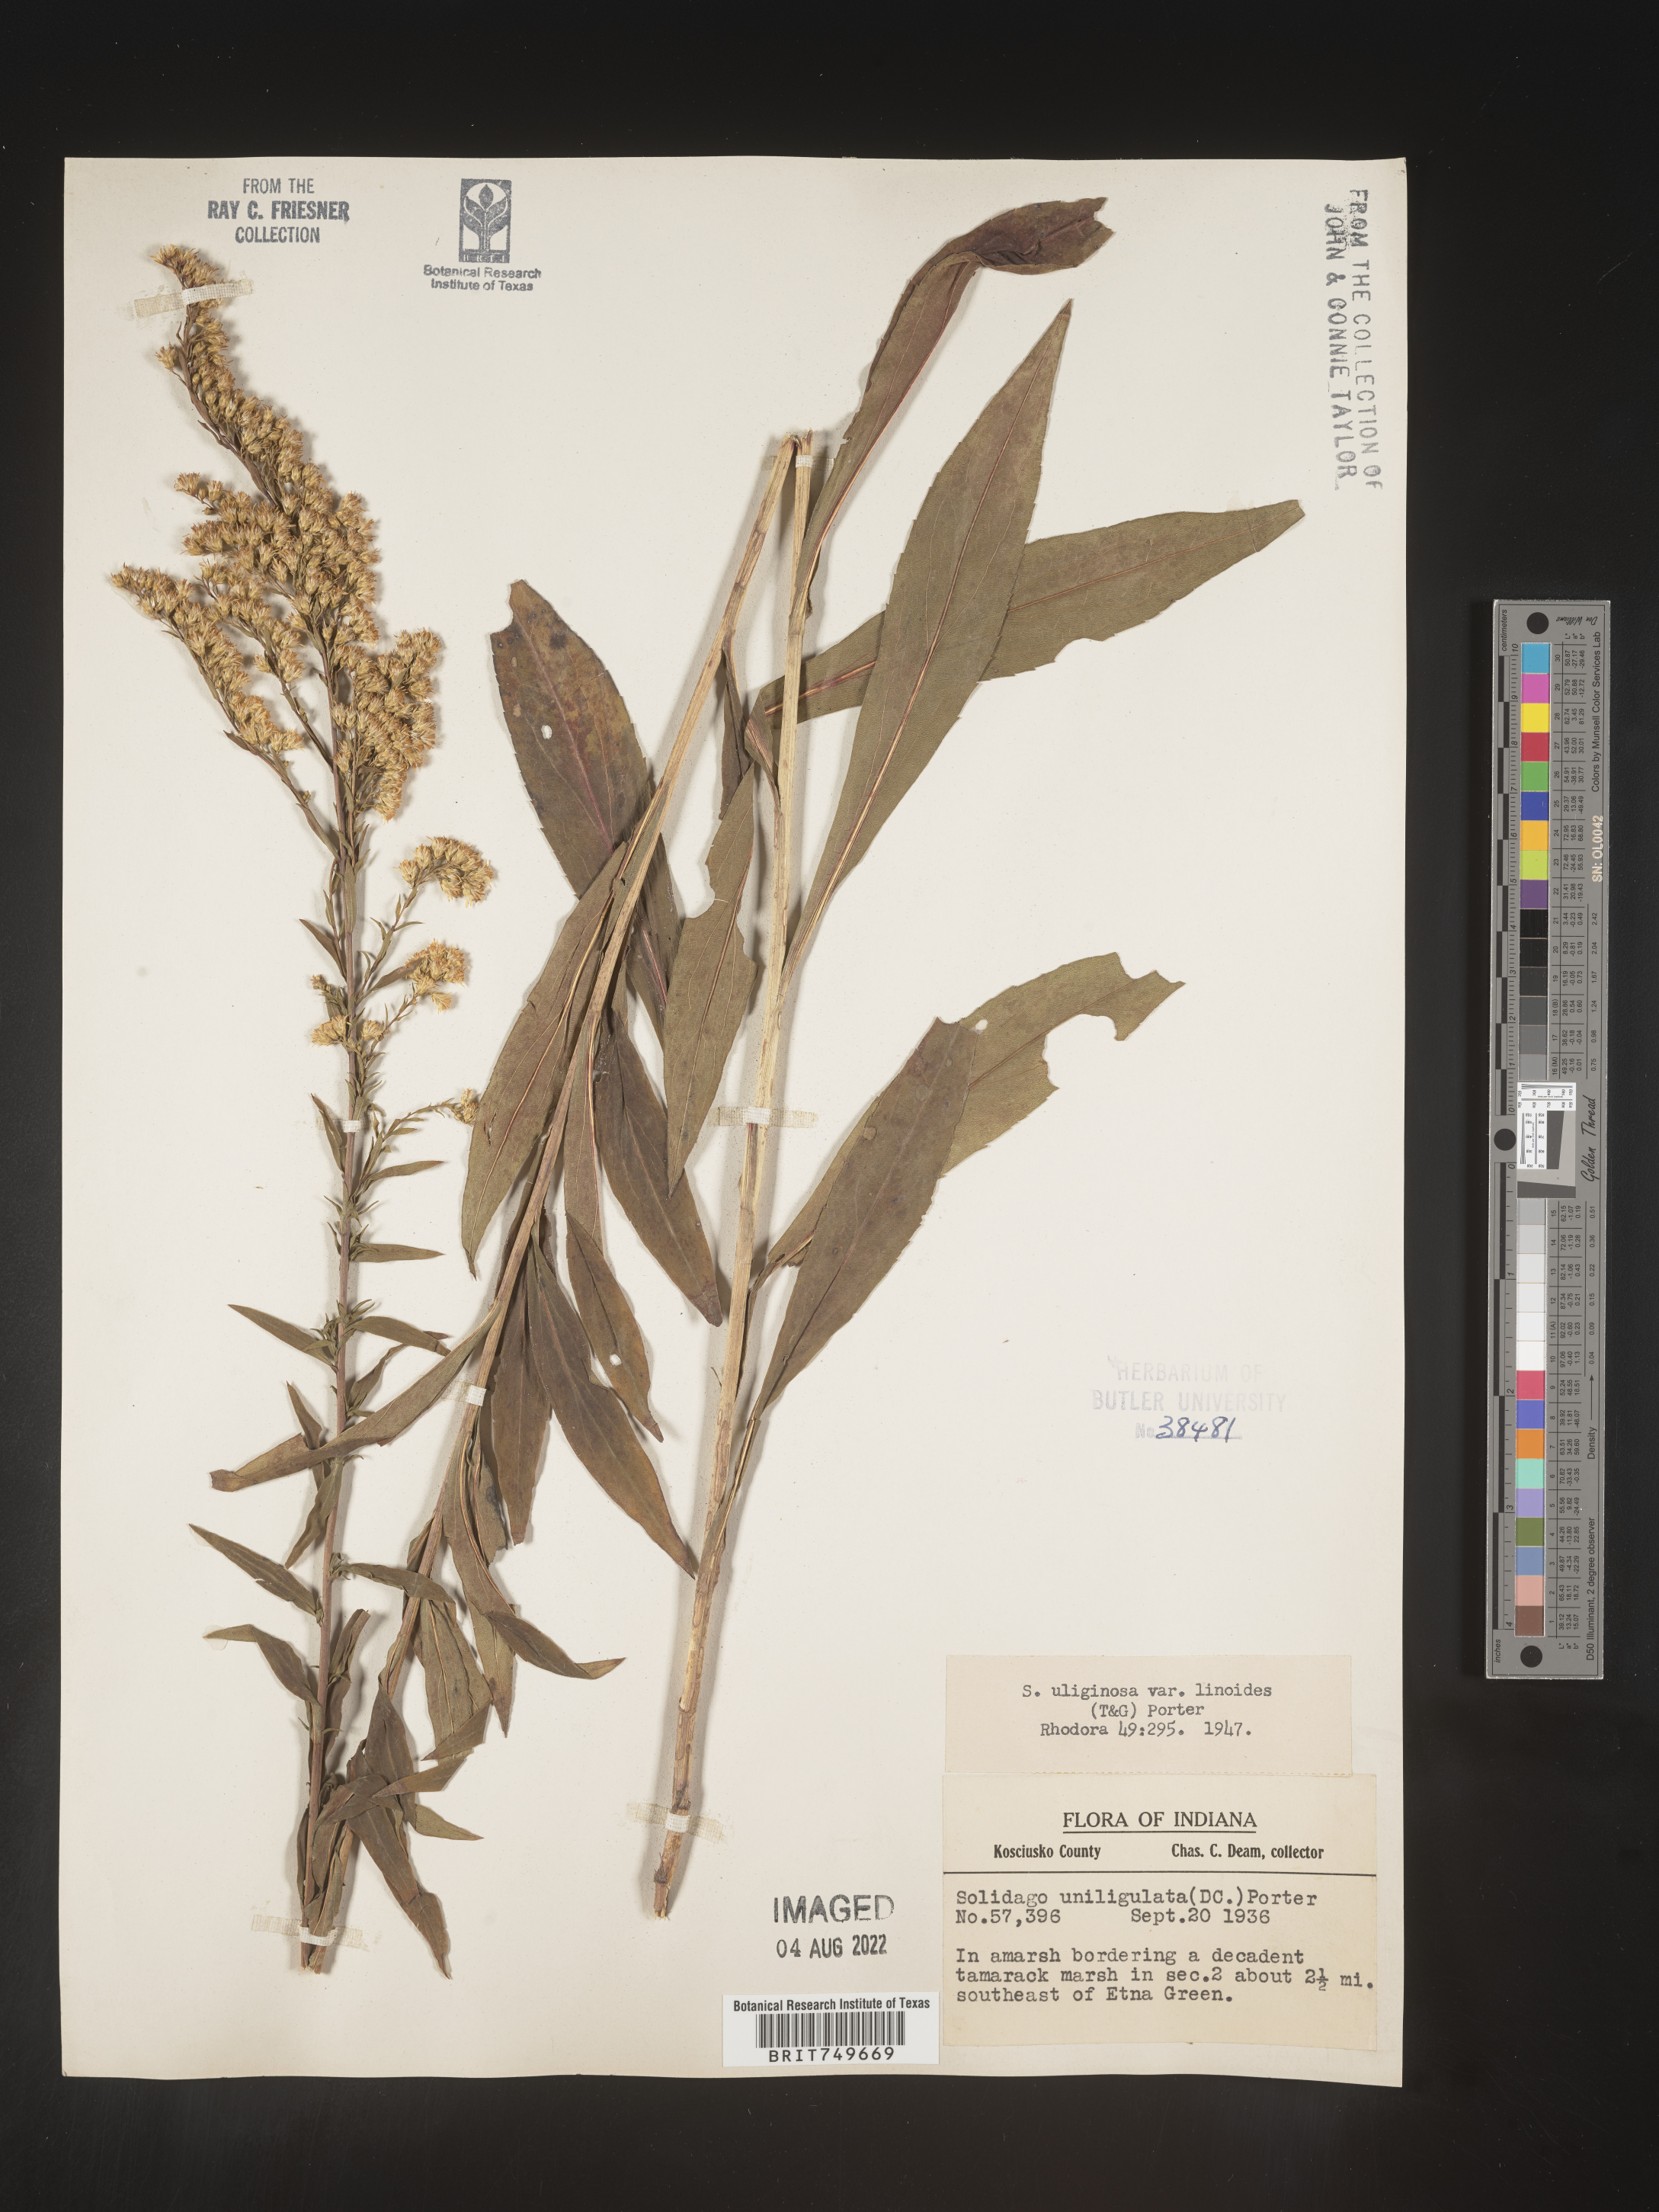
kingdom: Plantae
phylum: Tracheophyta
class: Magnoliopsida
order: Asterales
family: Asteraceae
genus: Solidago
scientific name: Solidago uliginosa
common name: Bog goldenrod
